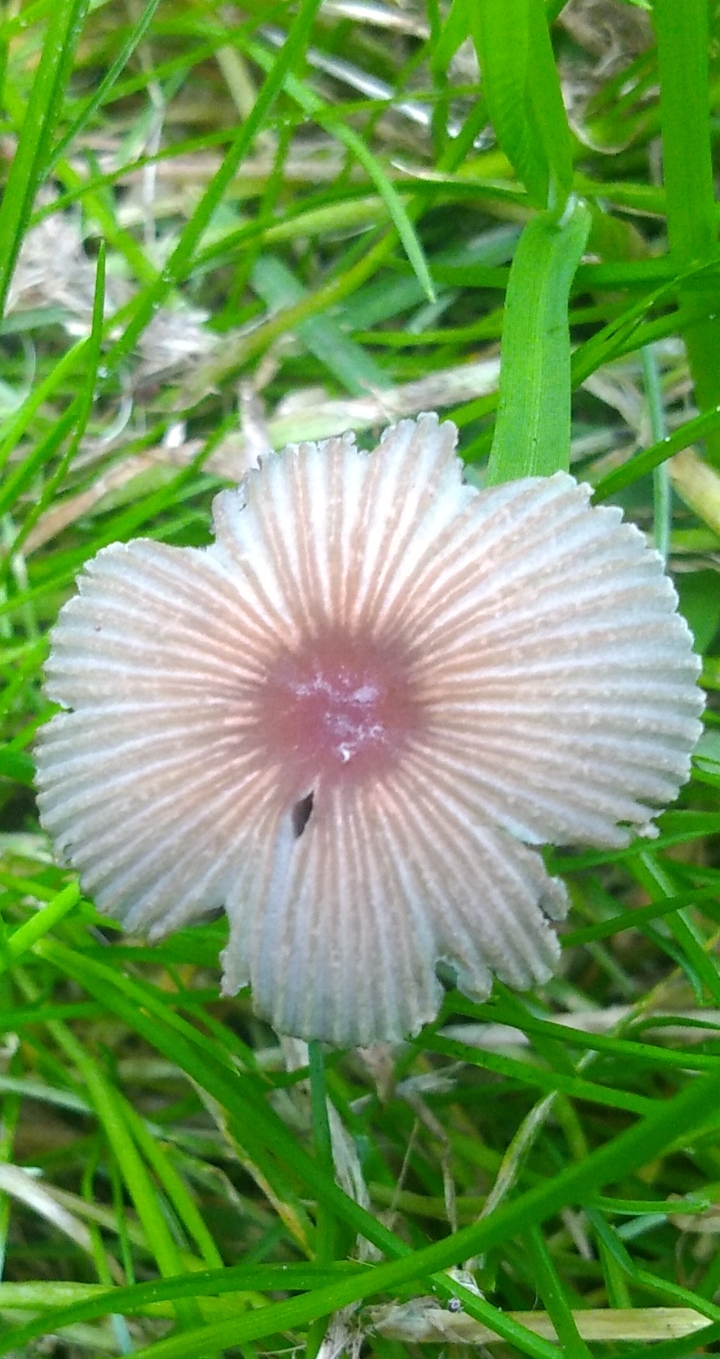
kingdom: Fungi
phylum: Basidiomycota
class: Agaricomycetes
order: Agaricales
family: Psathyrellaceae
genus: Parasola
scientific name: Parasola
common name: hjulhat
